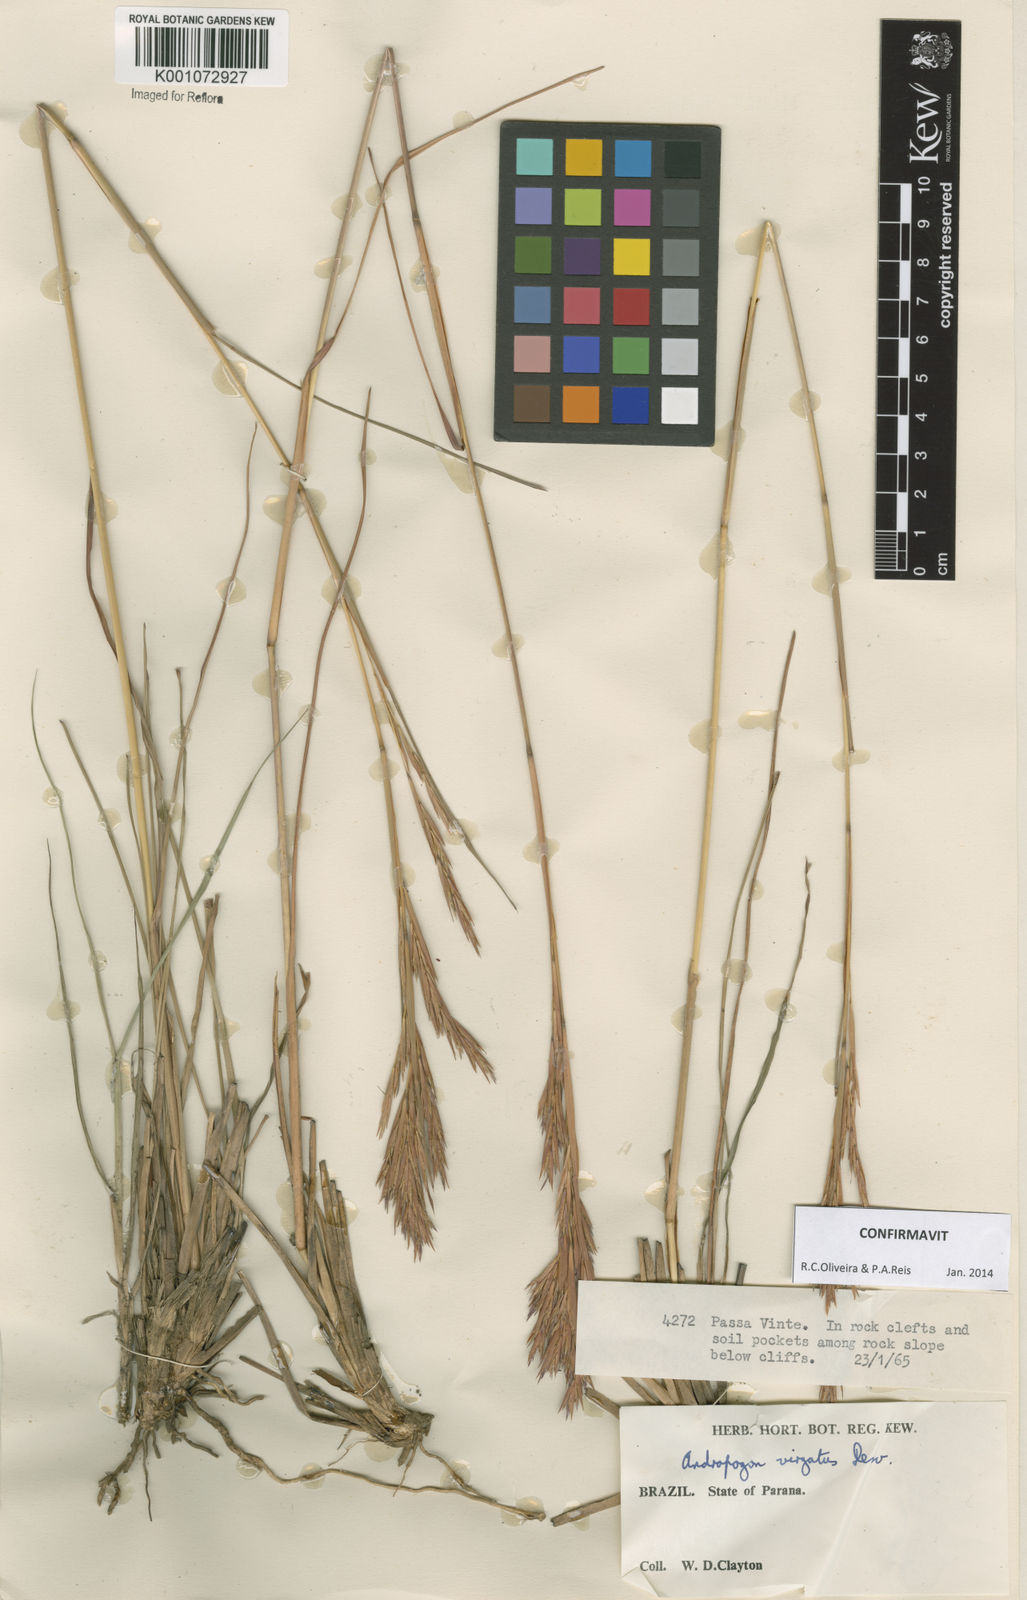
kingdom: Plantae
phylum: Tracheophyta
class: Liliopsida
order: Poales
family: Poaceae
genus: Andropogon
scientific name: Andropogon virgatus
